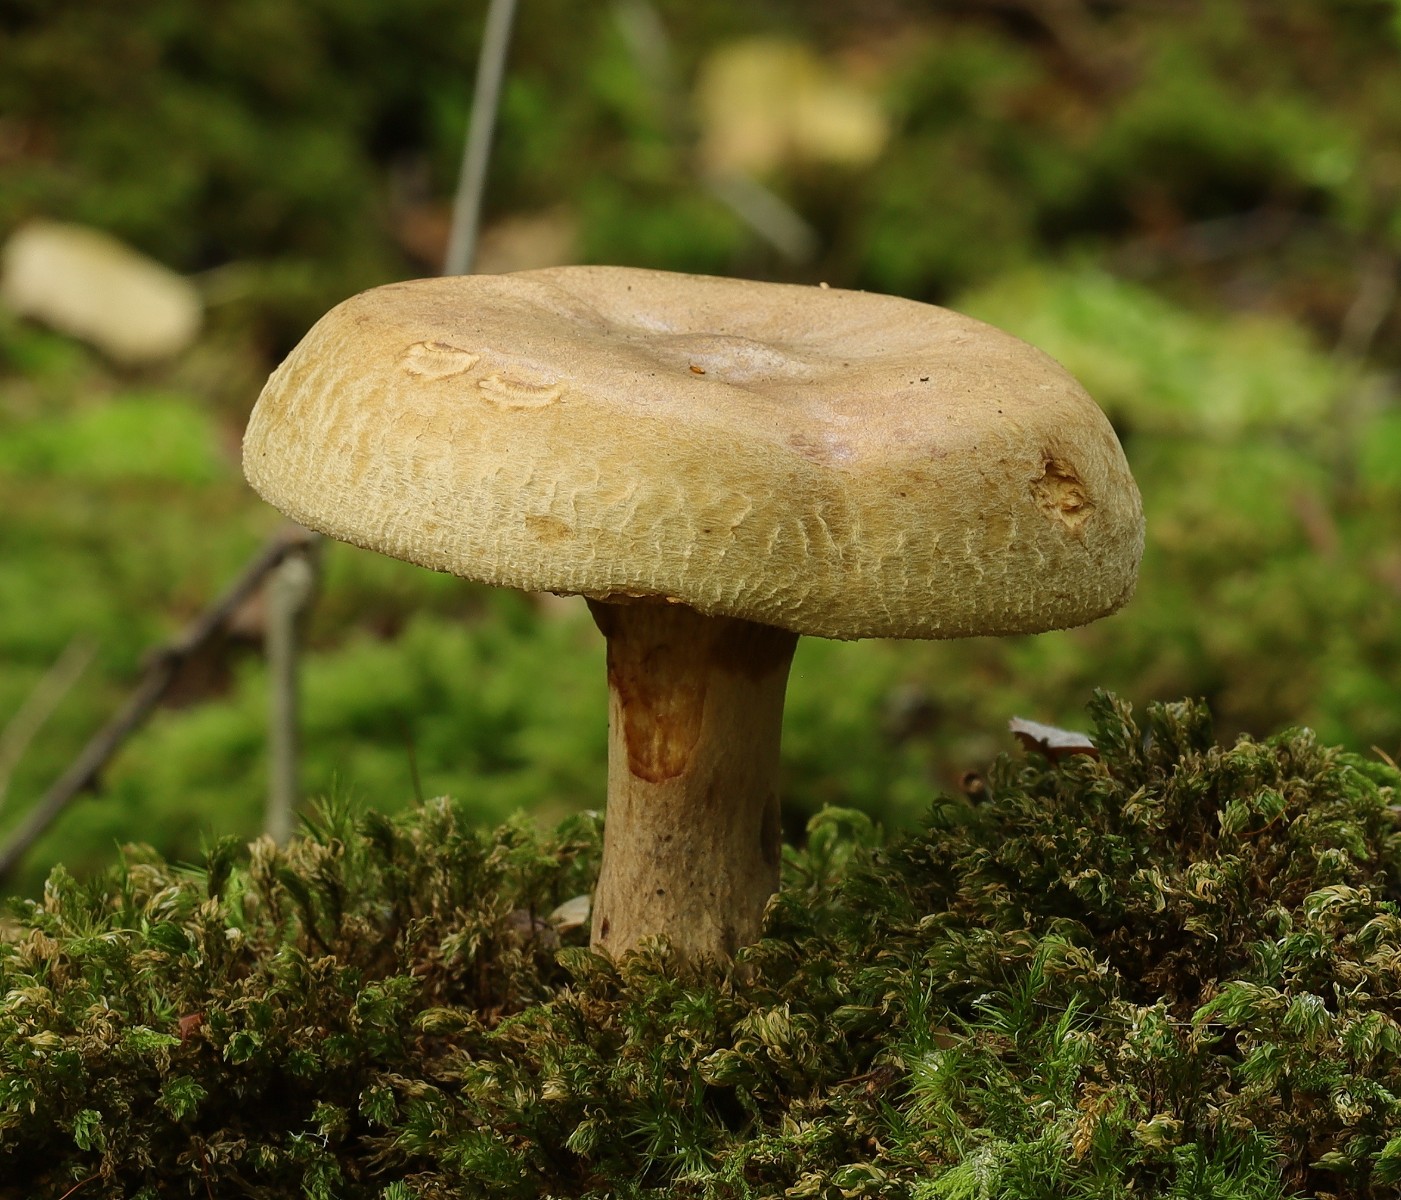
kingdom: Fungi
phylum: Basidiomycota
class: Agaricomycetes
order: Boletales
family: Paxillaceae
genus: Paxillus
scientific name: Paxillus involutus
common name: almindelig netbladhat
